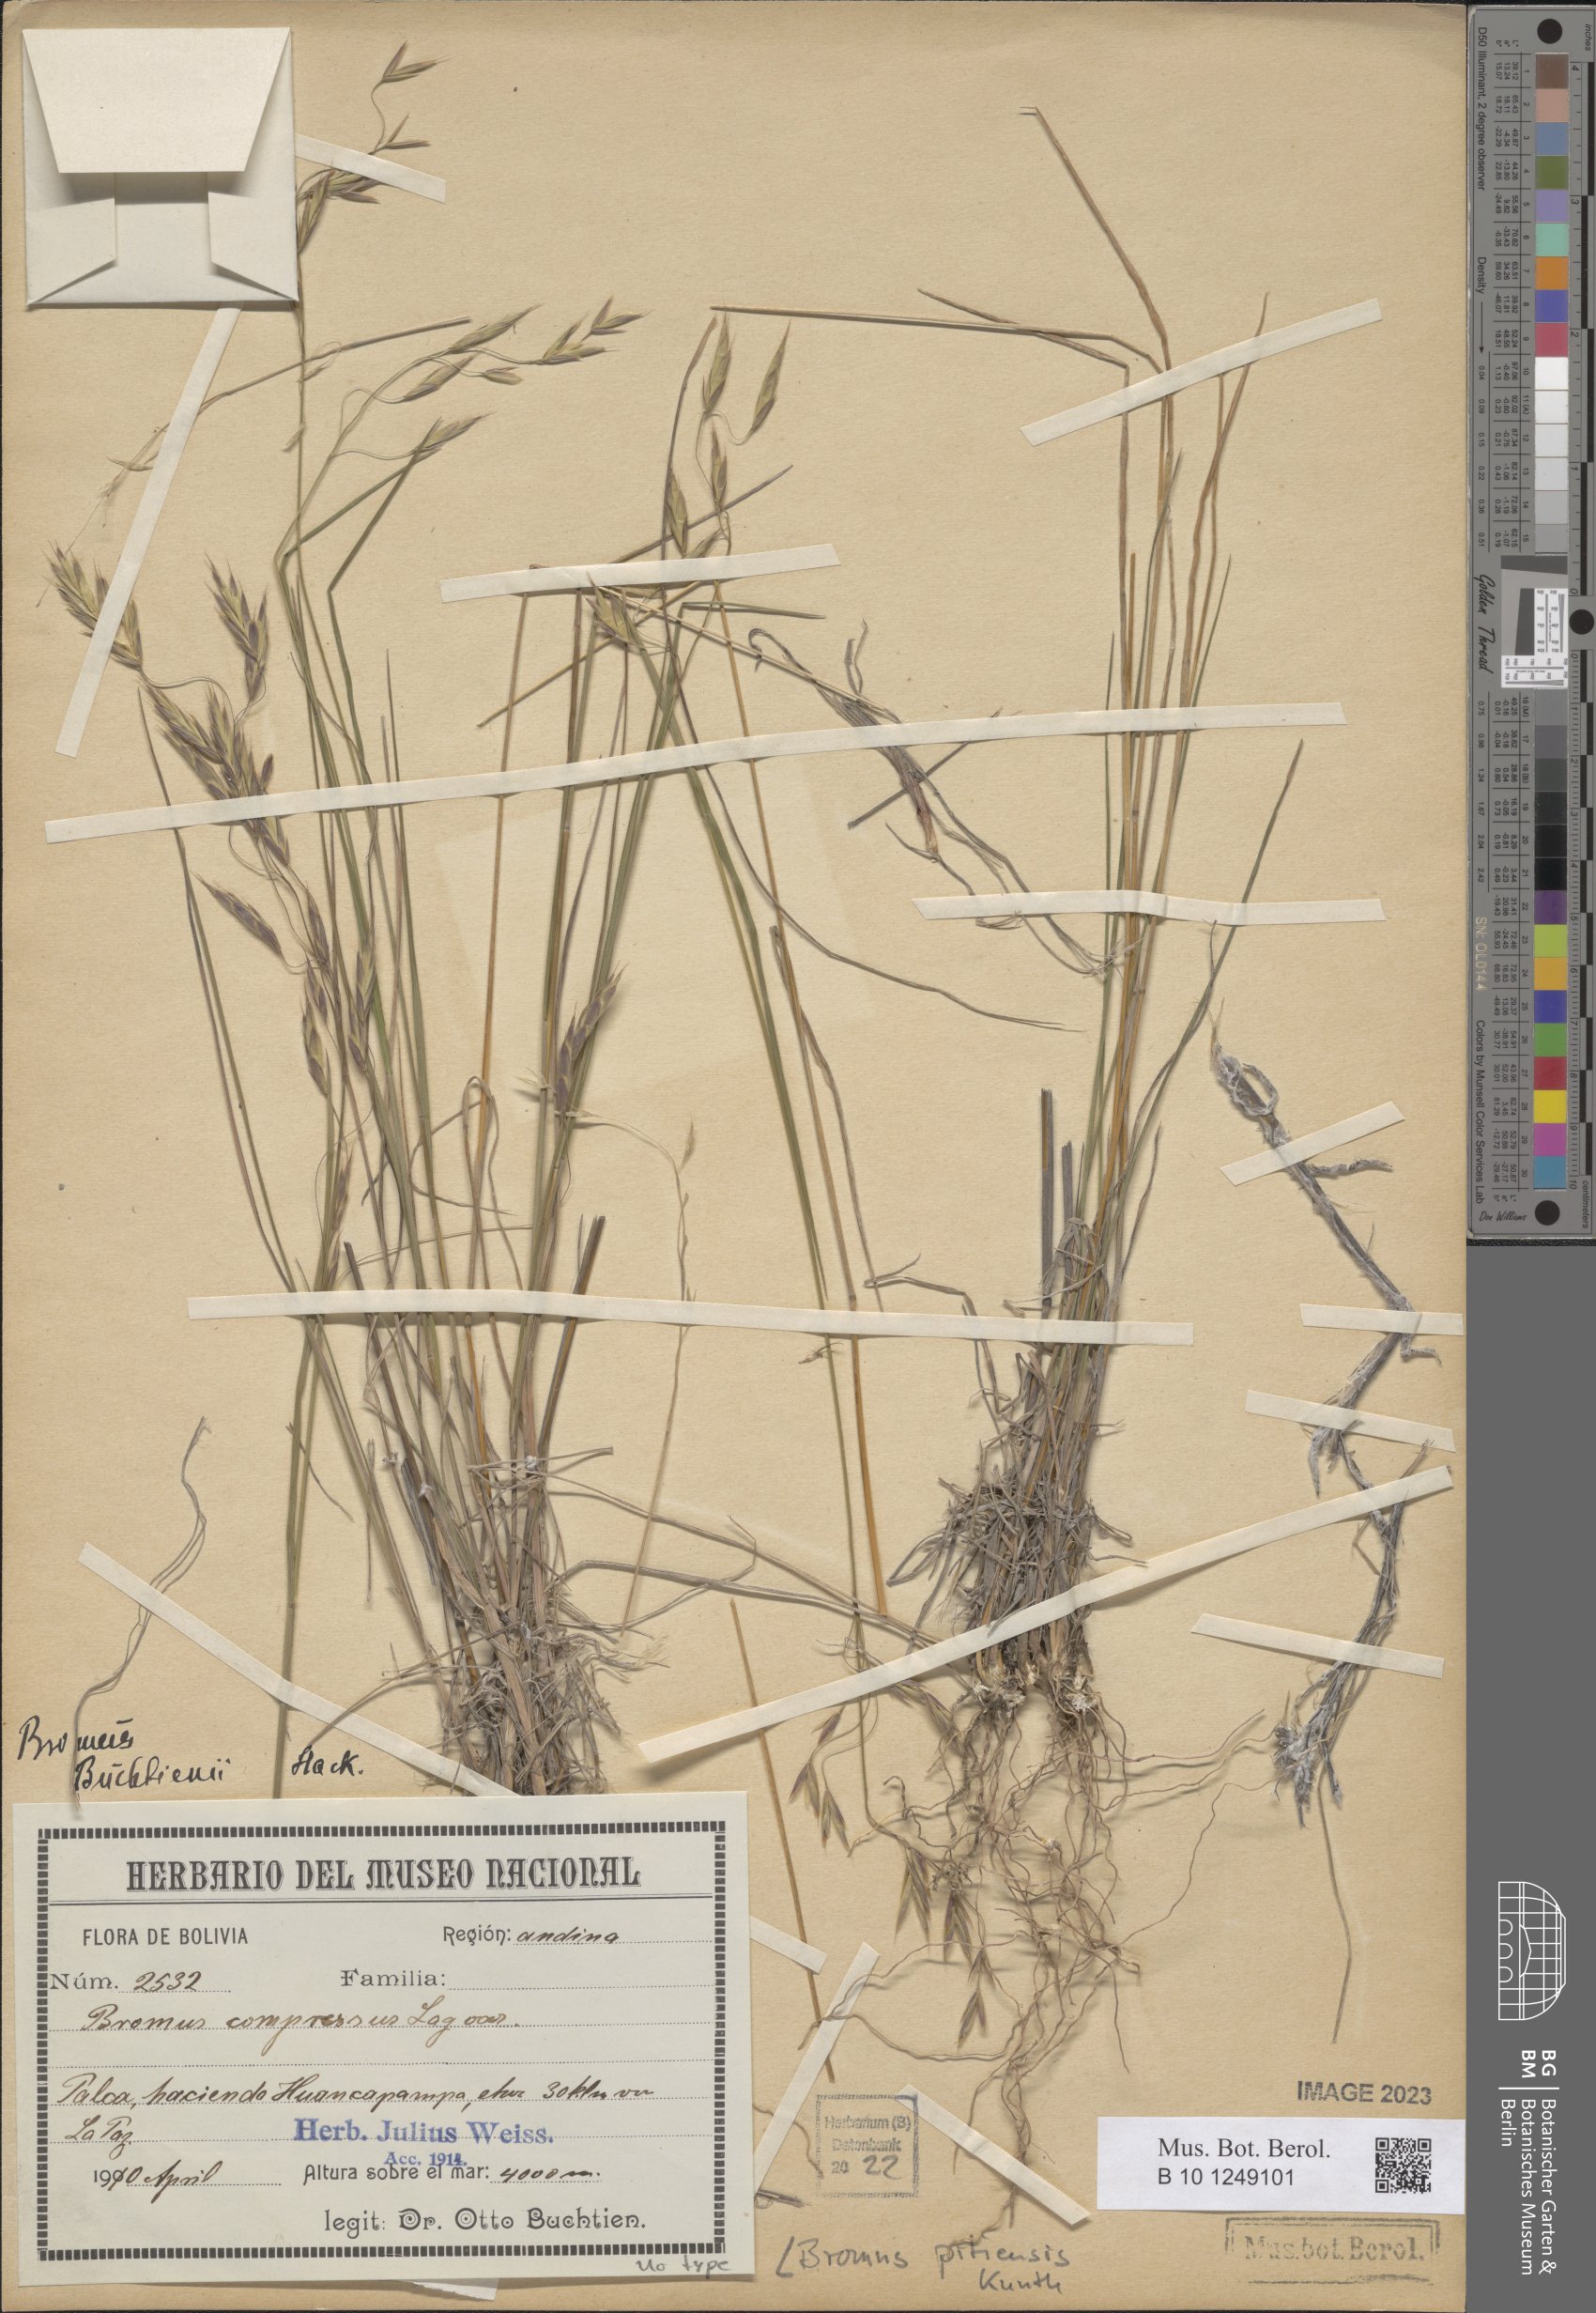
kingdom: Plantae
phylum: Tracheophyta
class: Liliopsida
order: Poales
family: Poaceae
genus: Bromus
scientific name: Bromus pitensis
